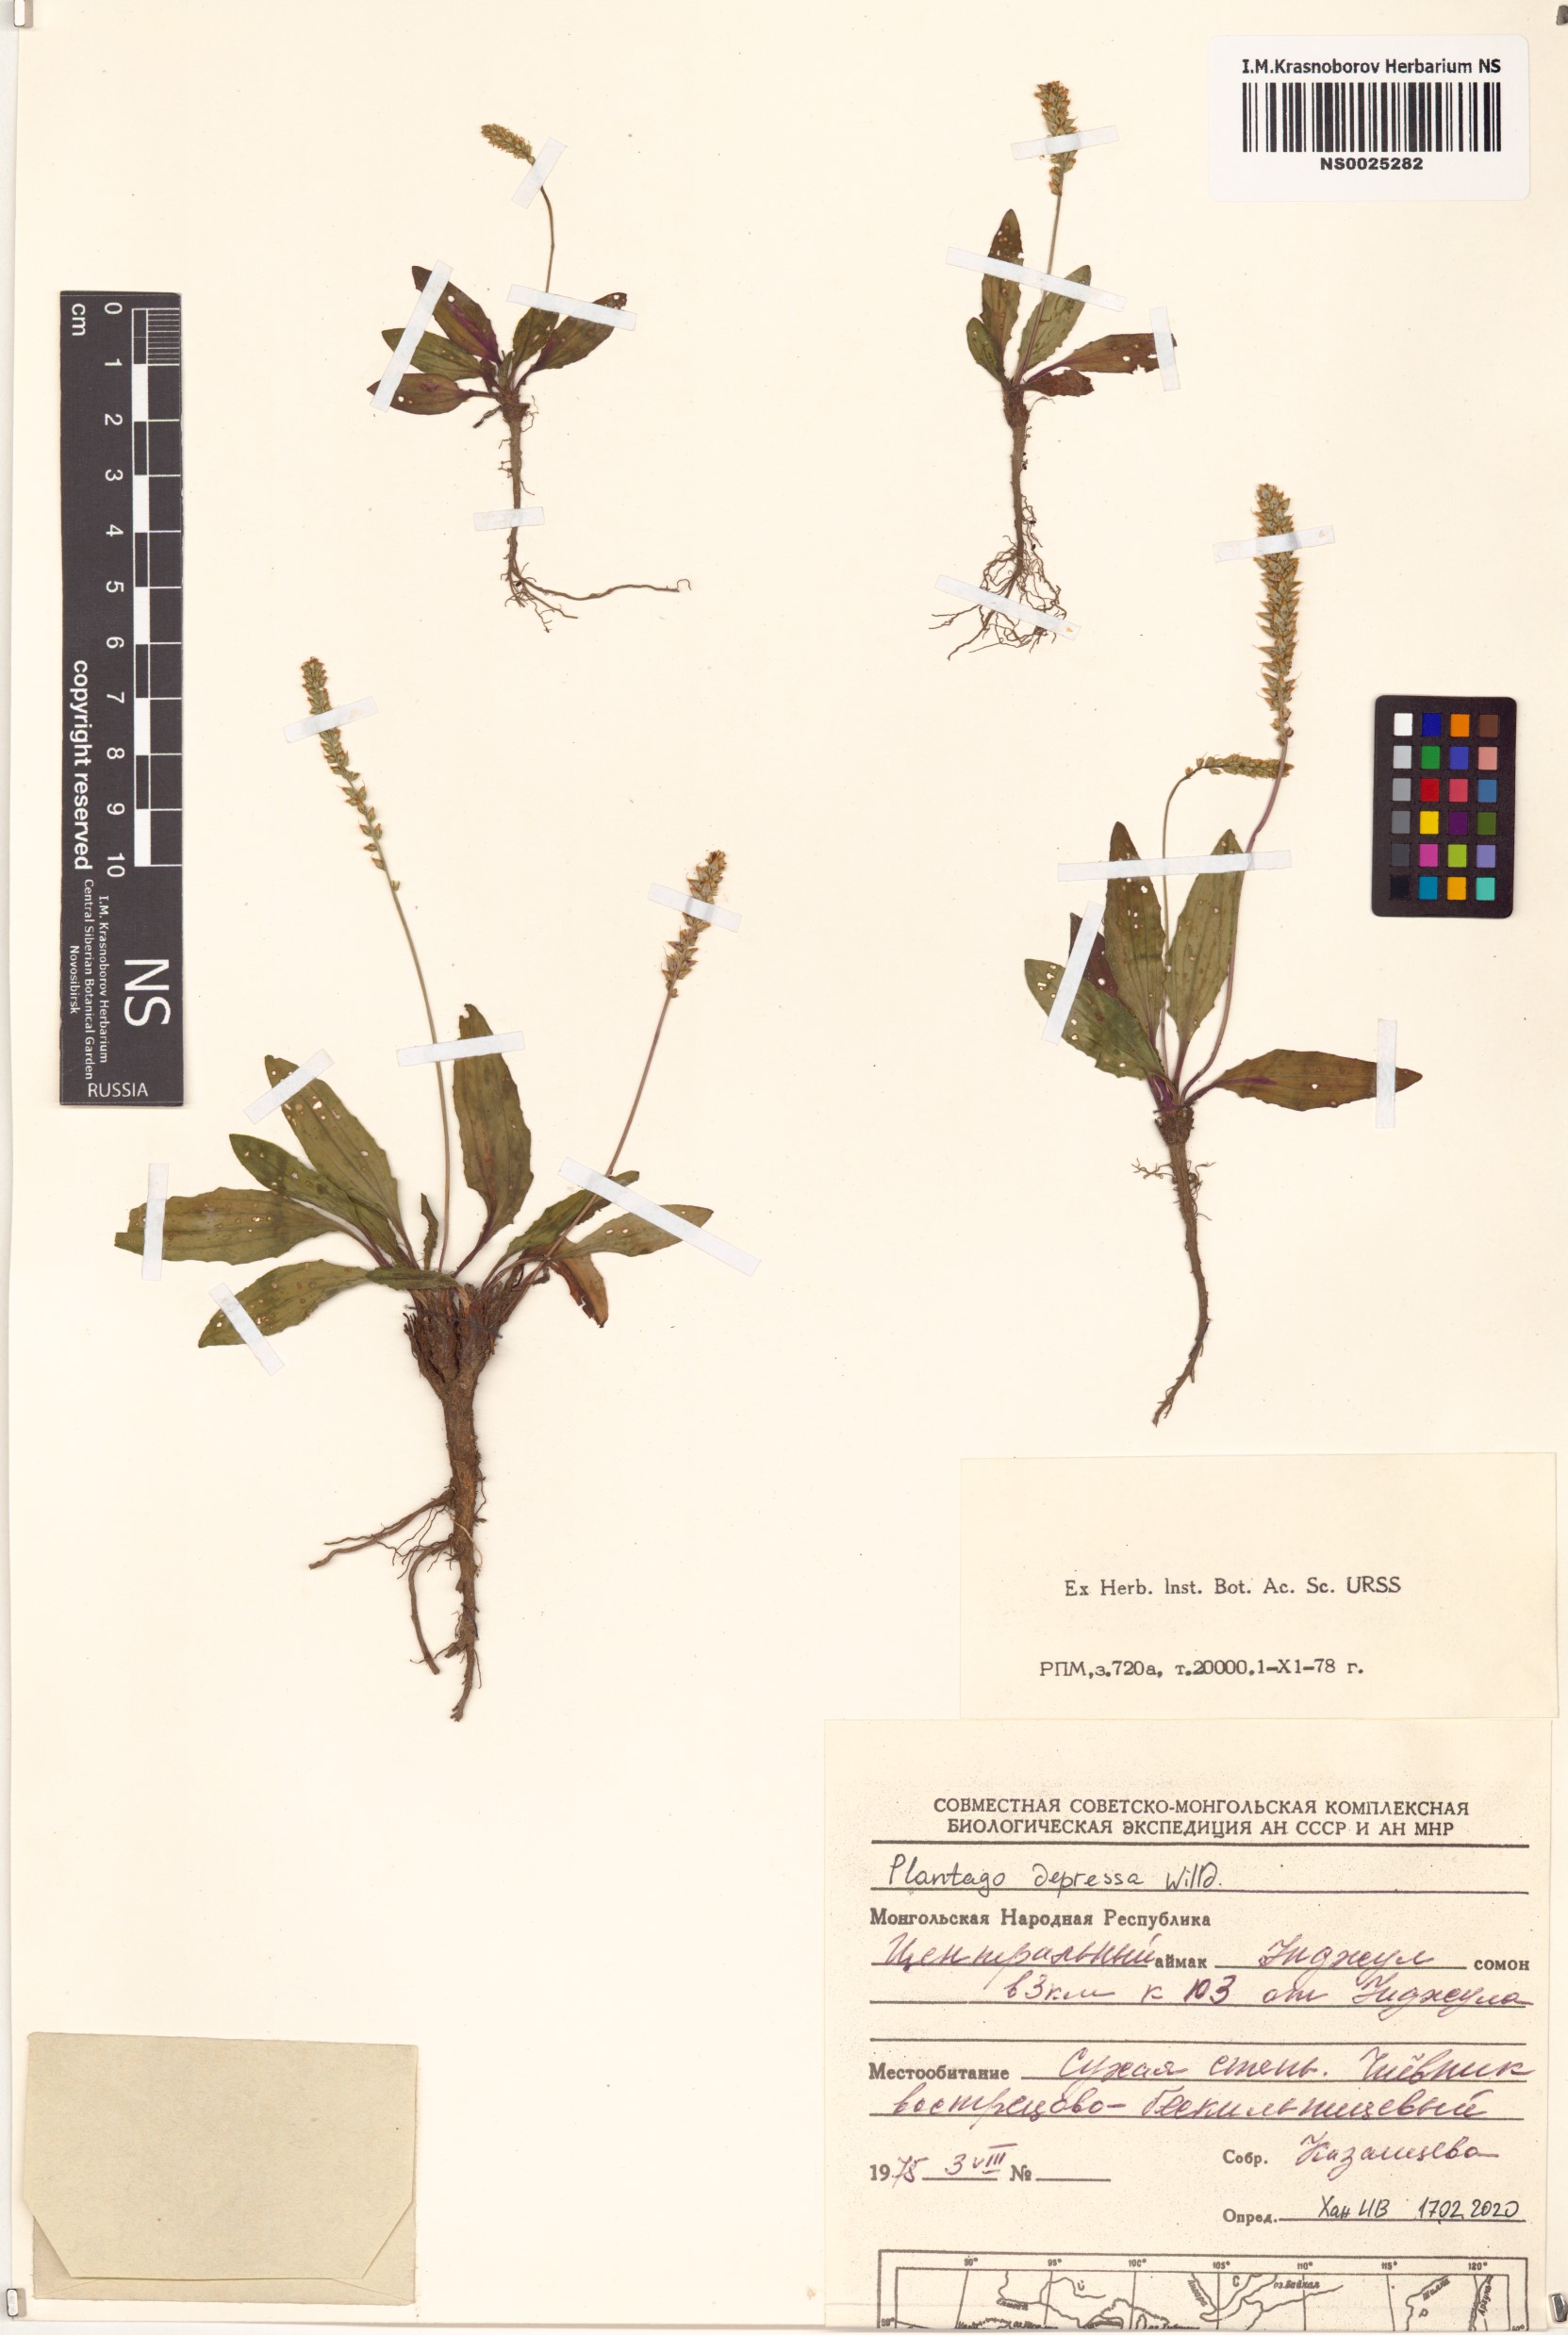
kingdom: Plantae
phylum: Tracheophyta
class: Magnoliopsida
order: Lamiales
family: Plantaginaceae
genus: Plantago
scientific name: Plantago depressa
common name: Depressed plantain
